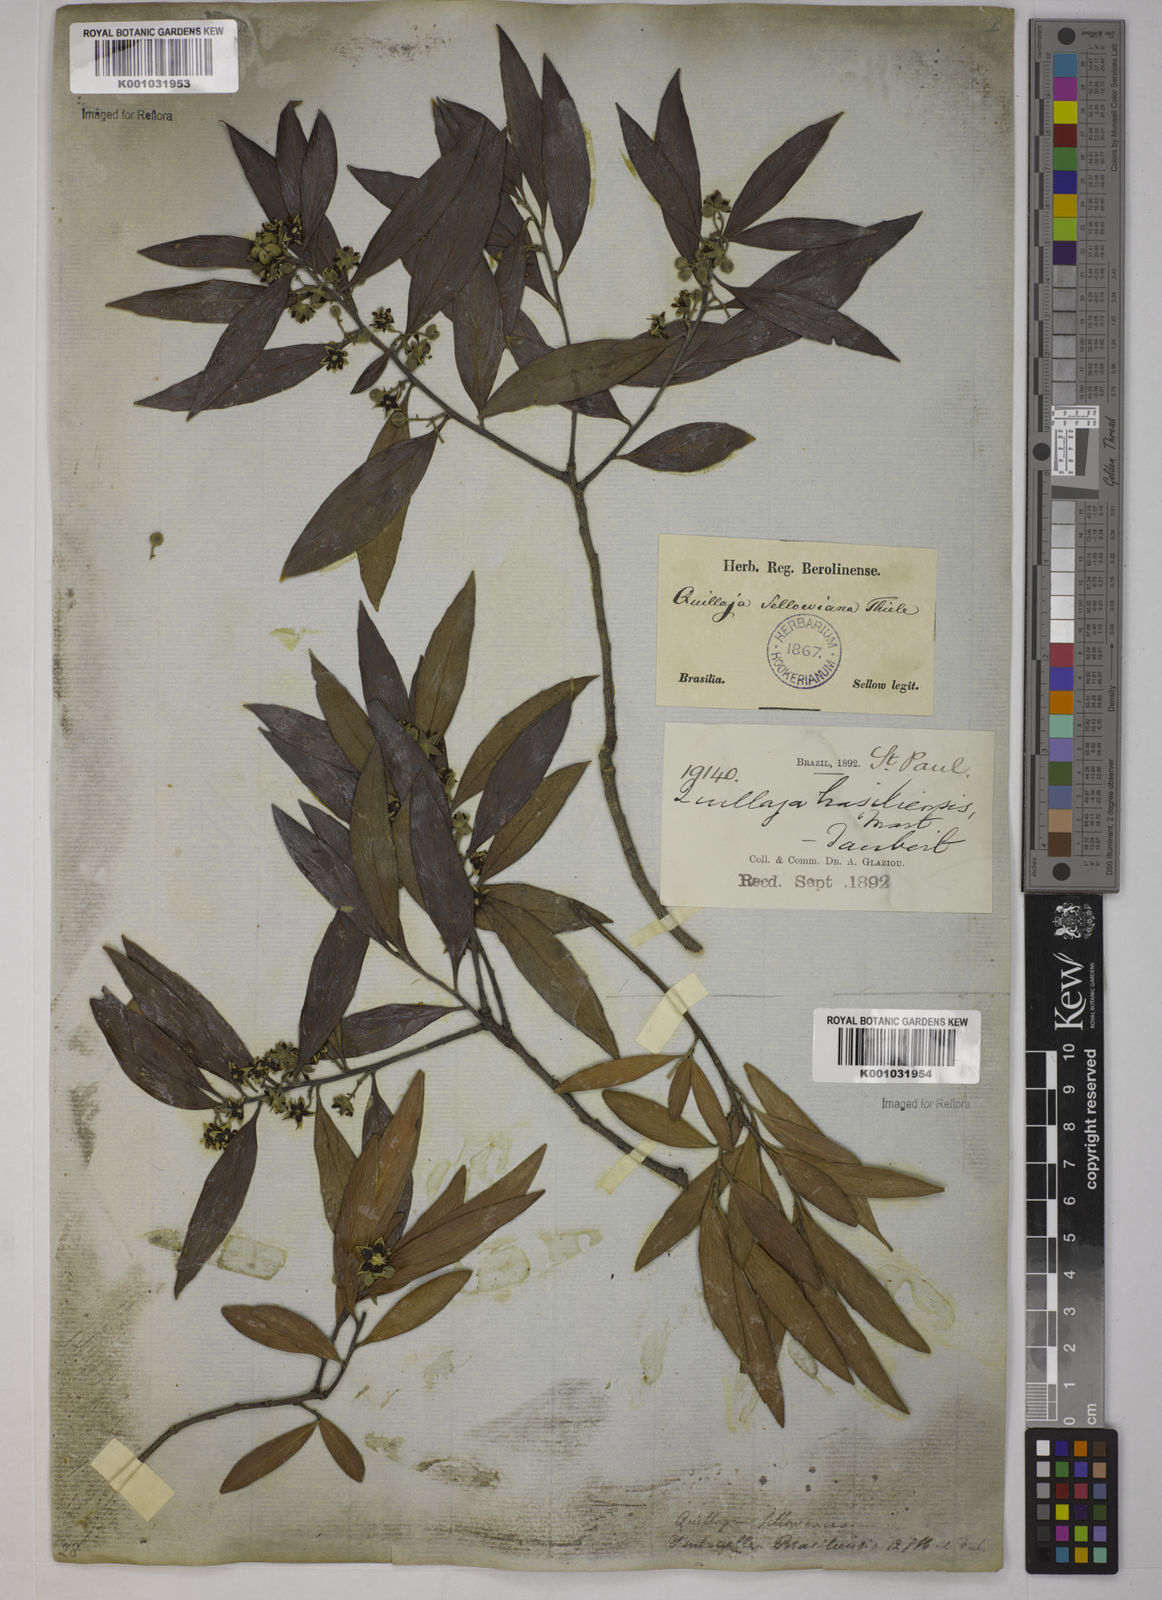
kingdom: Plantae
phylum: Tracheophyta
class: Magnoliopsida
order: Fabales
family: Quillajaceae
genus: Quillaja
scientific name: Quillaja brasiliensis
